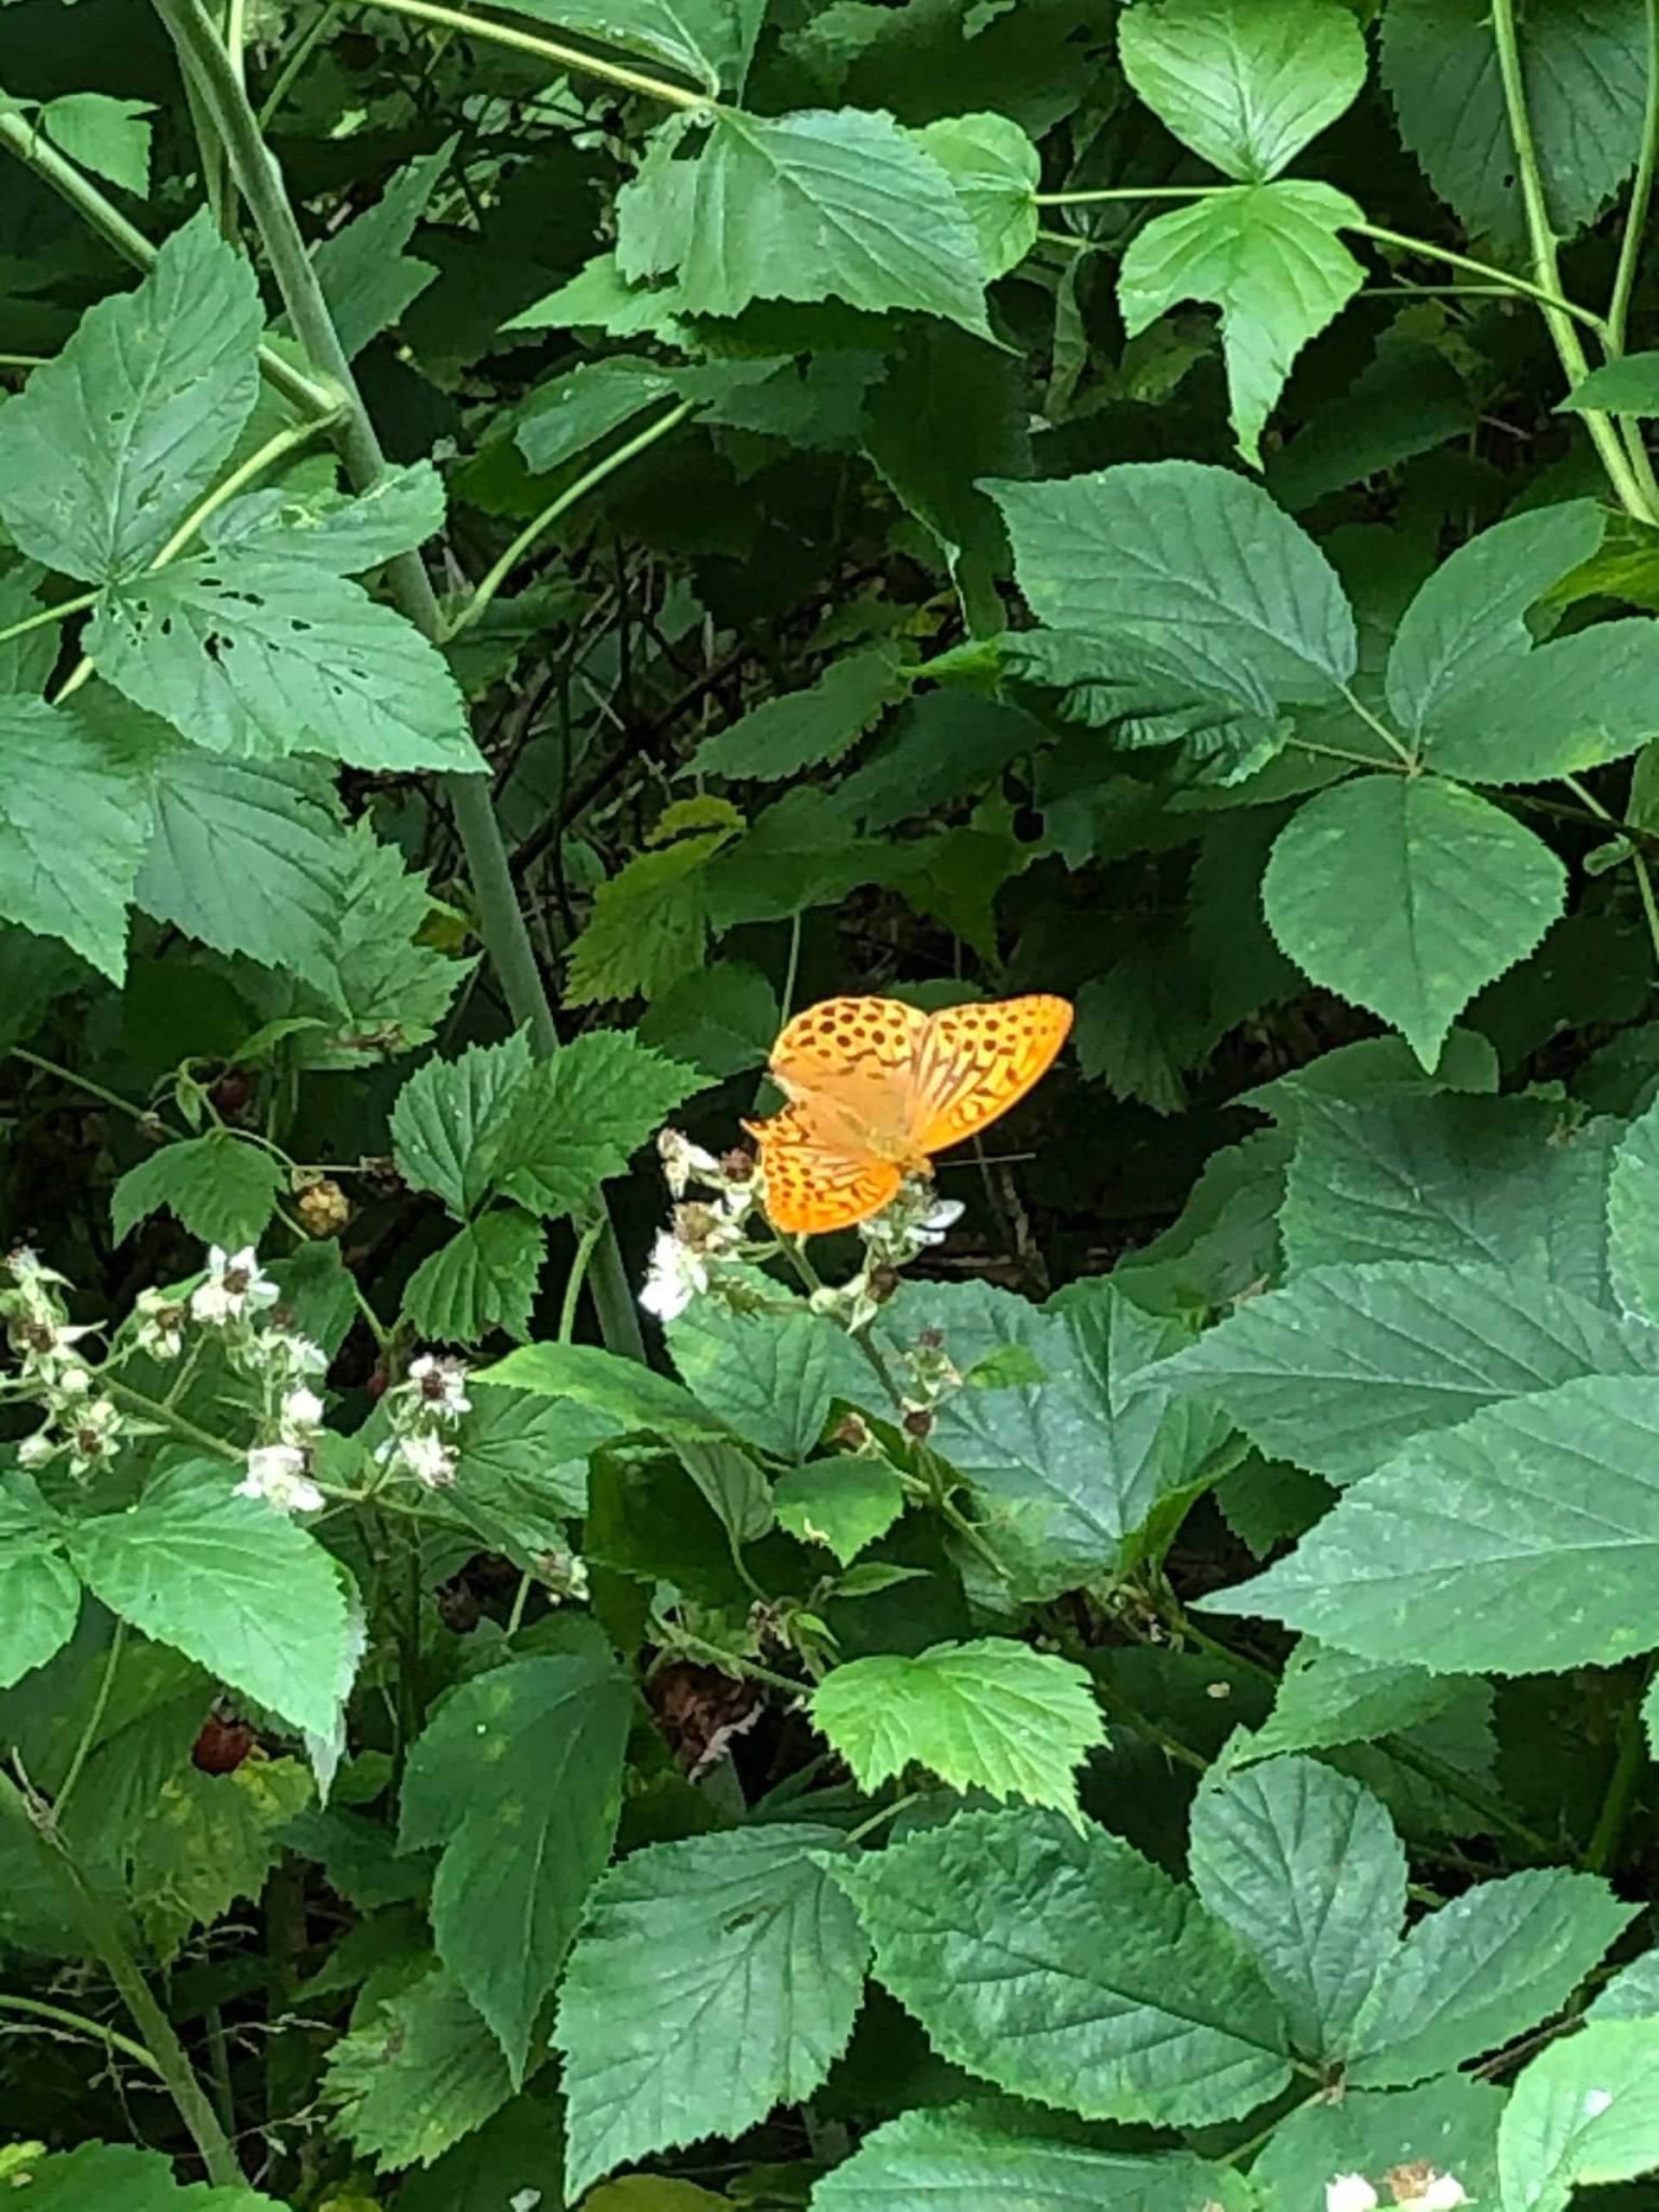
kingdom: Animalia
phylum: Arthropoda
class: Insecta
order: Lepidoptera
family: Nymphalidae
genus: Argynnis
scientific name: Argynnis paphia
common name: Kejserkåbe
